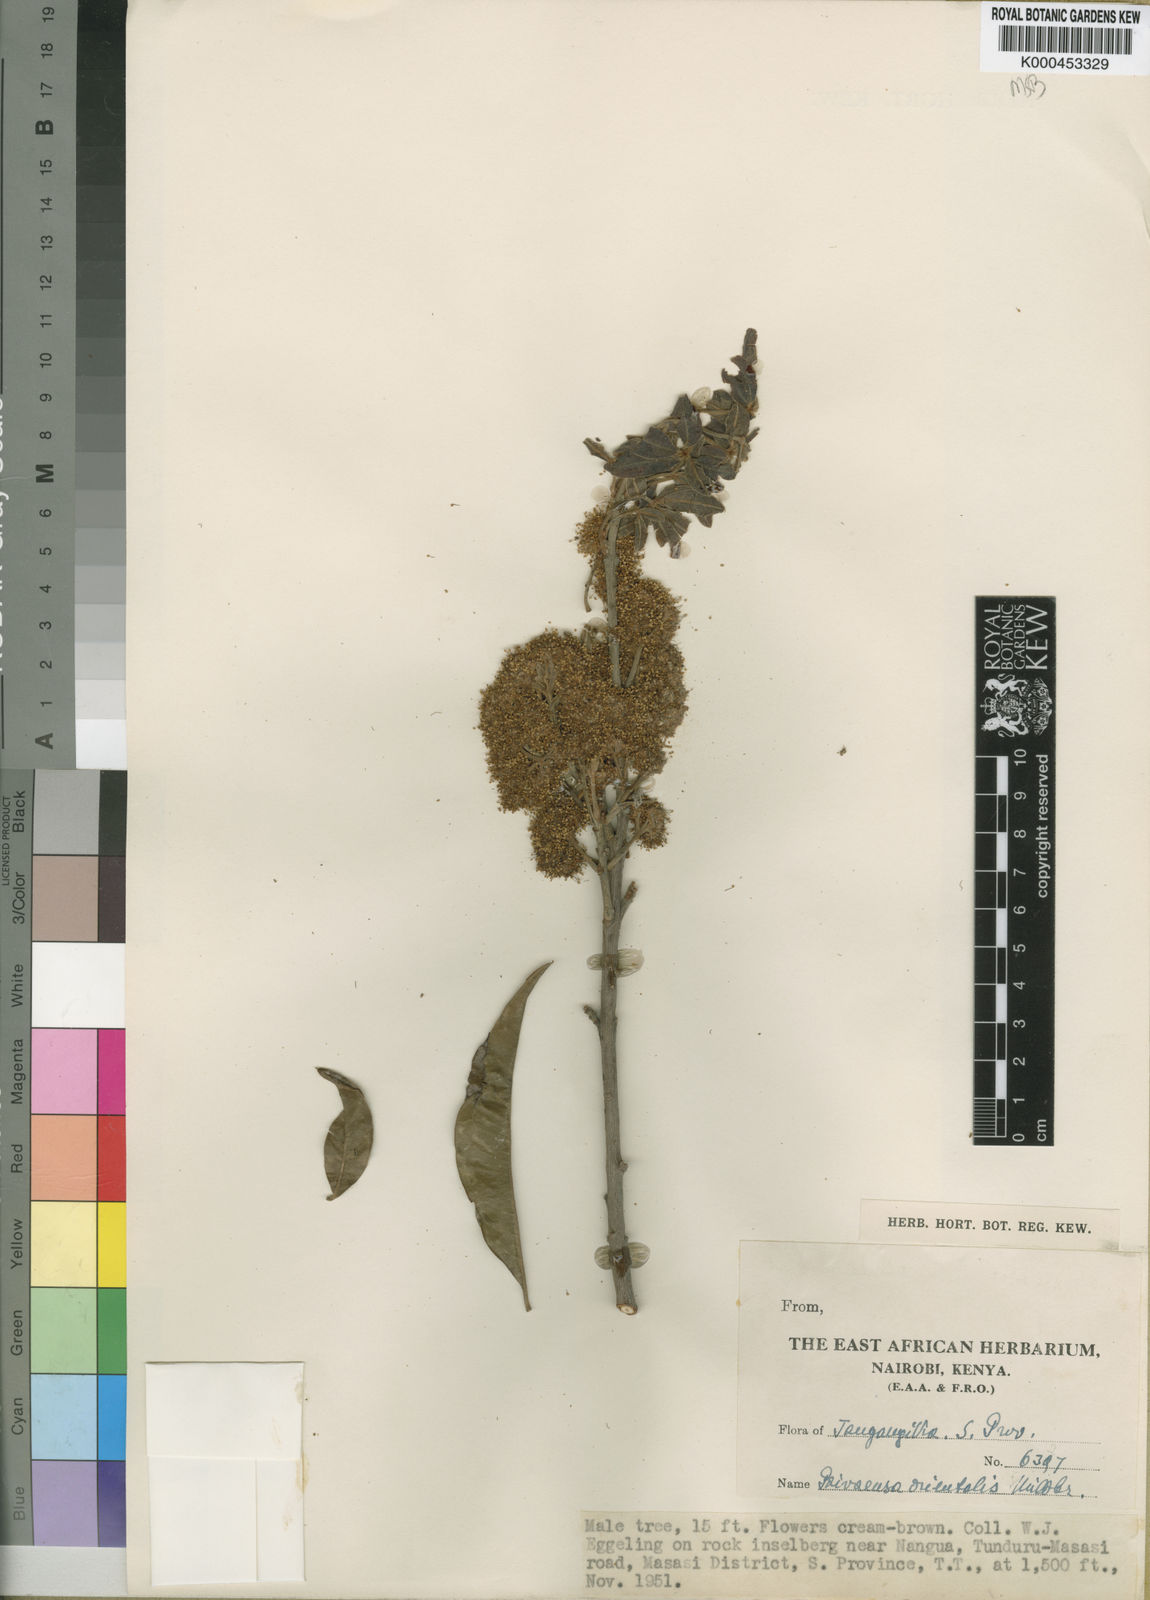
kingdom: Plantae
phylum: Tracheophyta
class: Magnoliopsida
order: Malpighiales
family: Picrodendraceae
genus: Oldfieldia
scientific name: Oldfieldia somalensis
